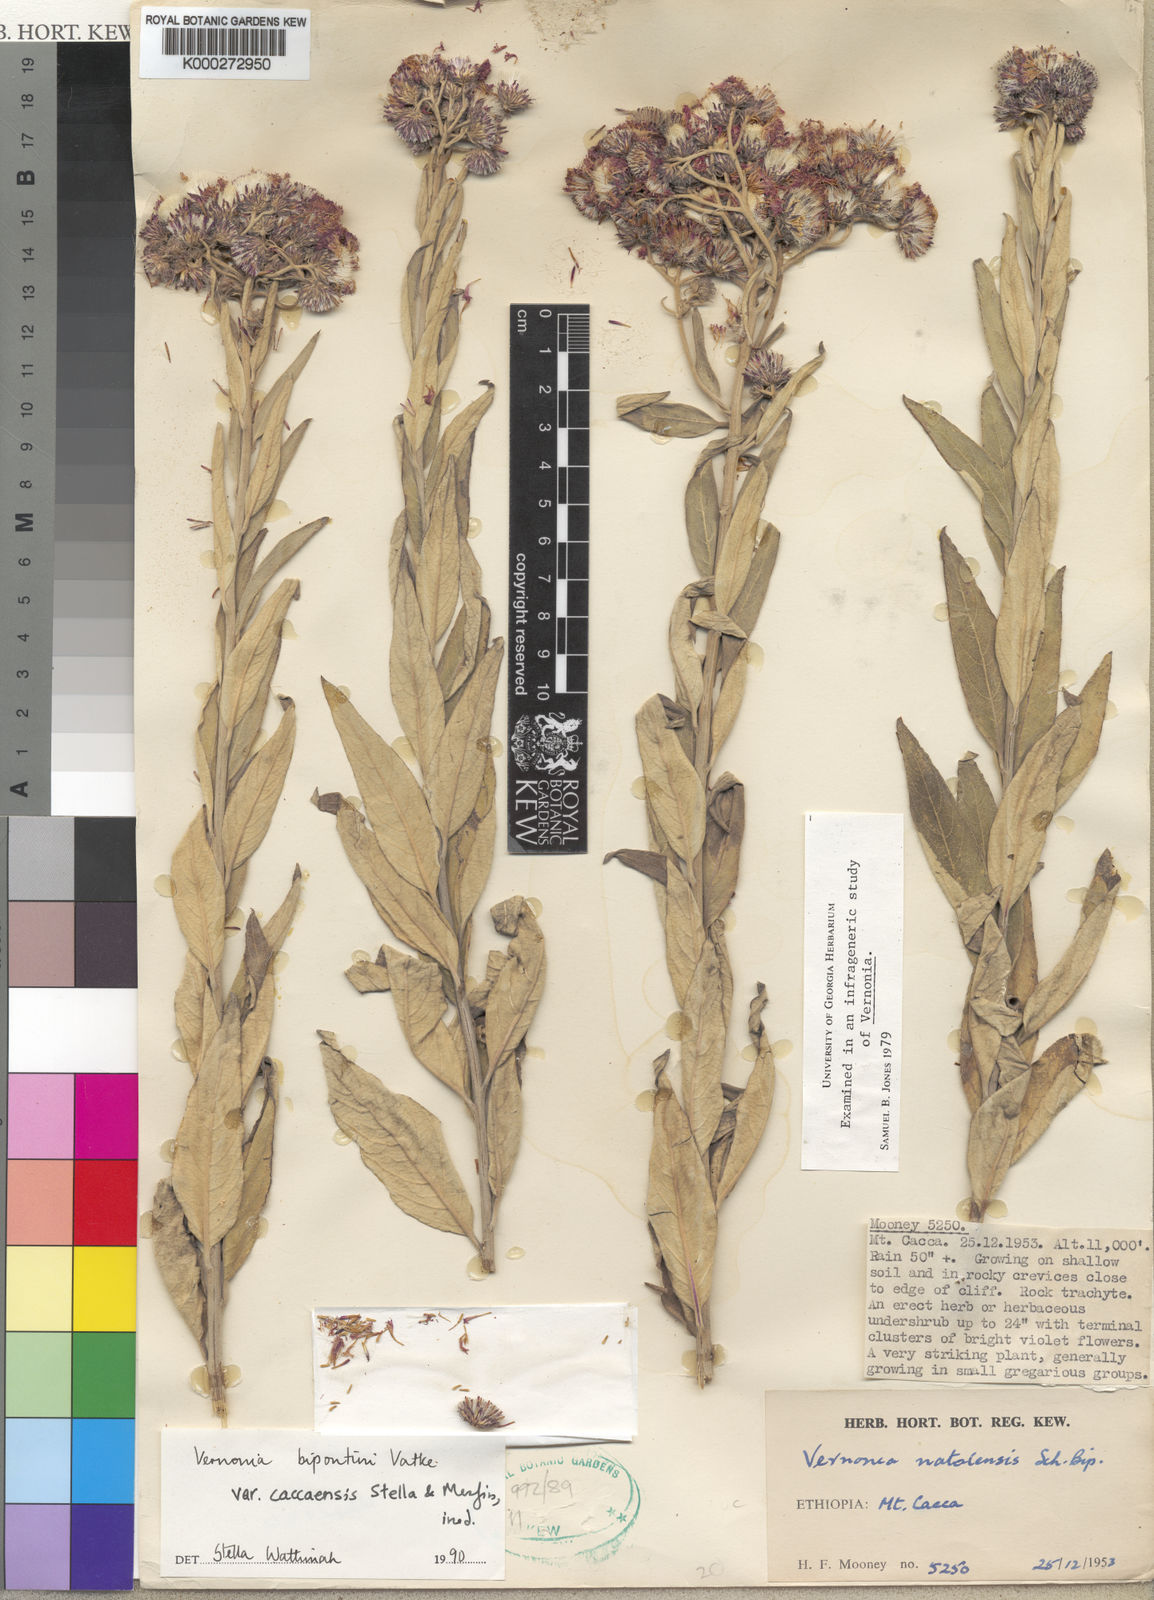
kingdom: Plantae
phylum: Tracheophyta
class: Magnoliopsida
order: Asterales
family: Asteraceae
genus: Vernonia
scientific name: Vernonia bipontini
